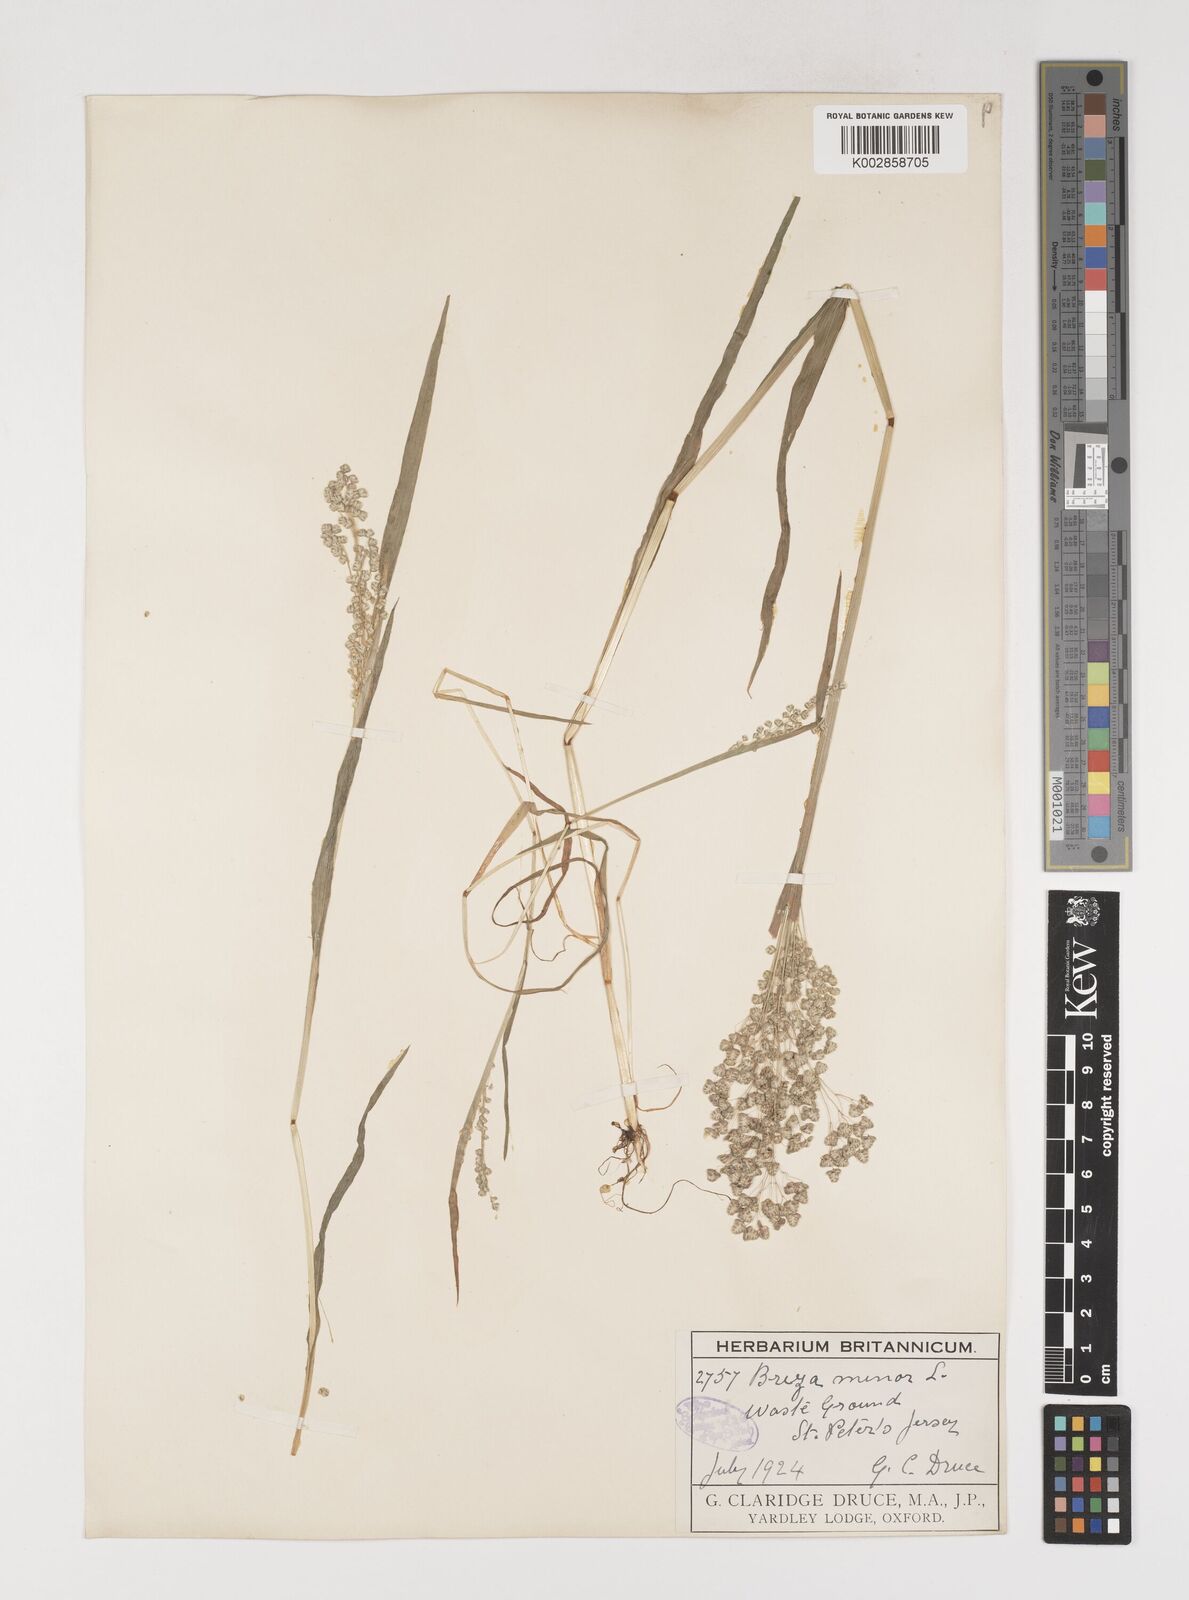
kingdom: Plantae
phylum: Tracheophyta
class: Liliopsida
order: Poales
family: Poaceae
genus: Briza
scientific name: Briza minor
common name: Lesser quaking-grass
